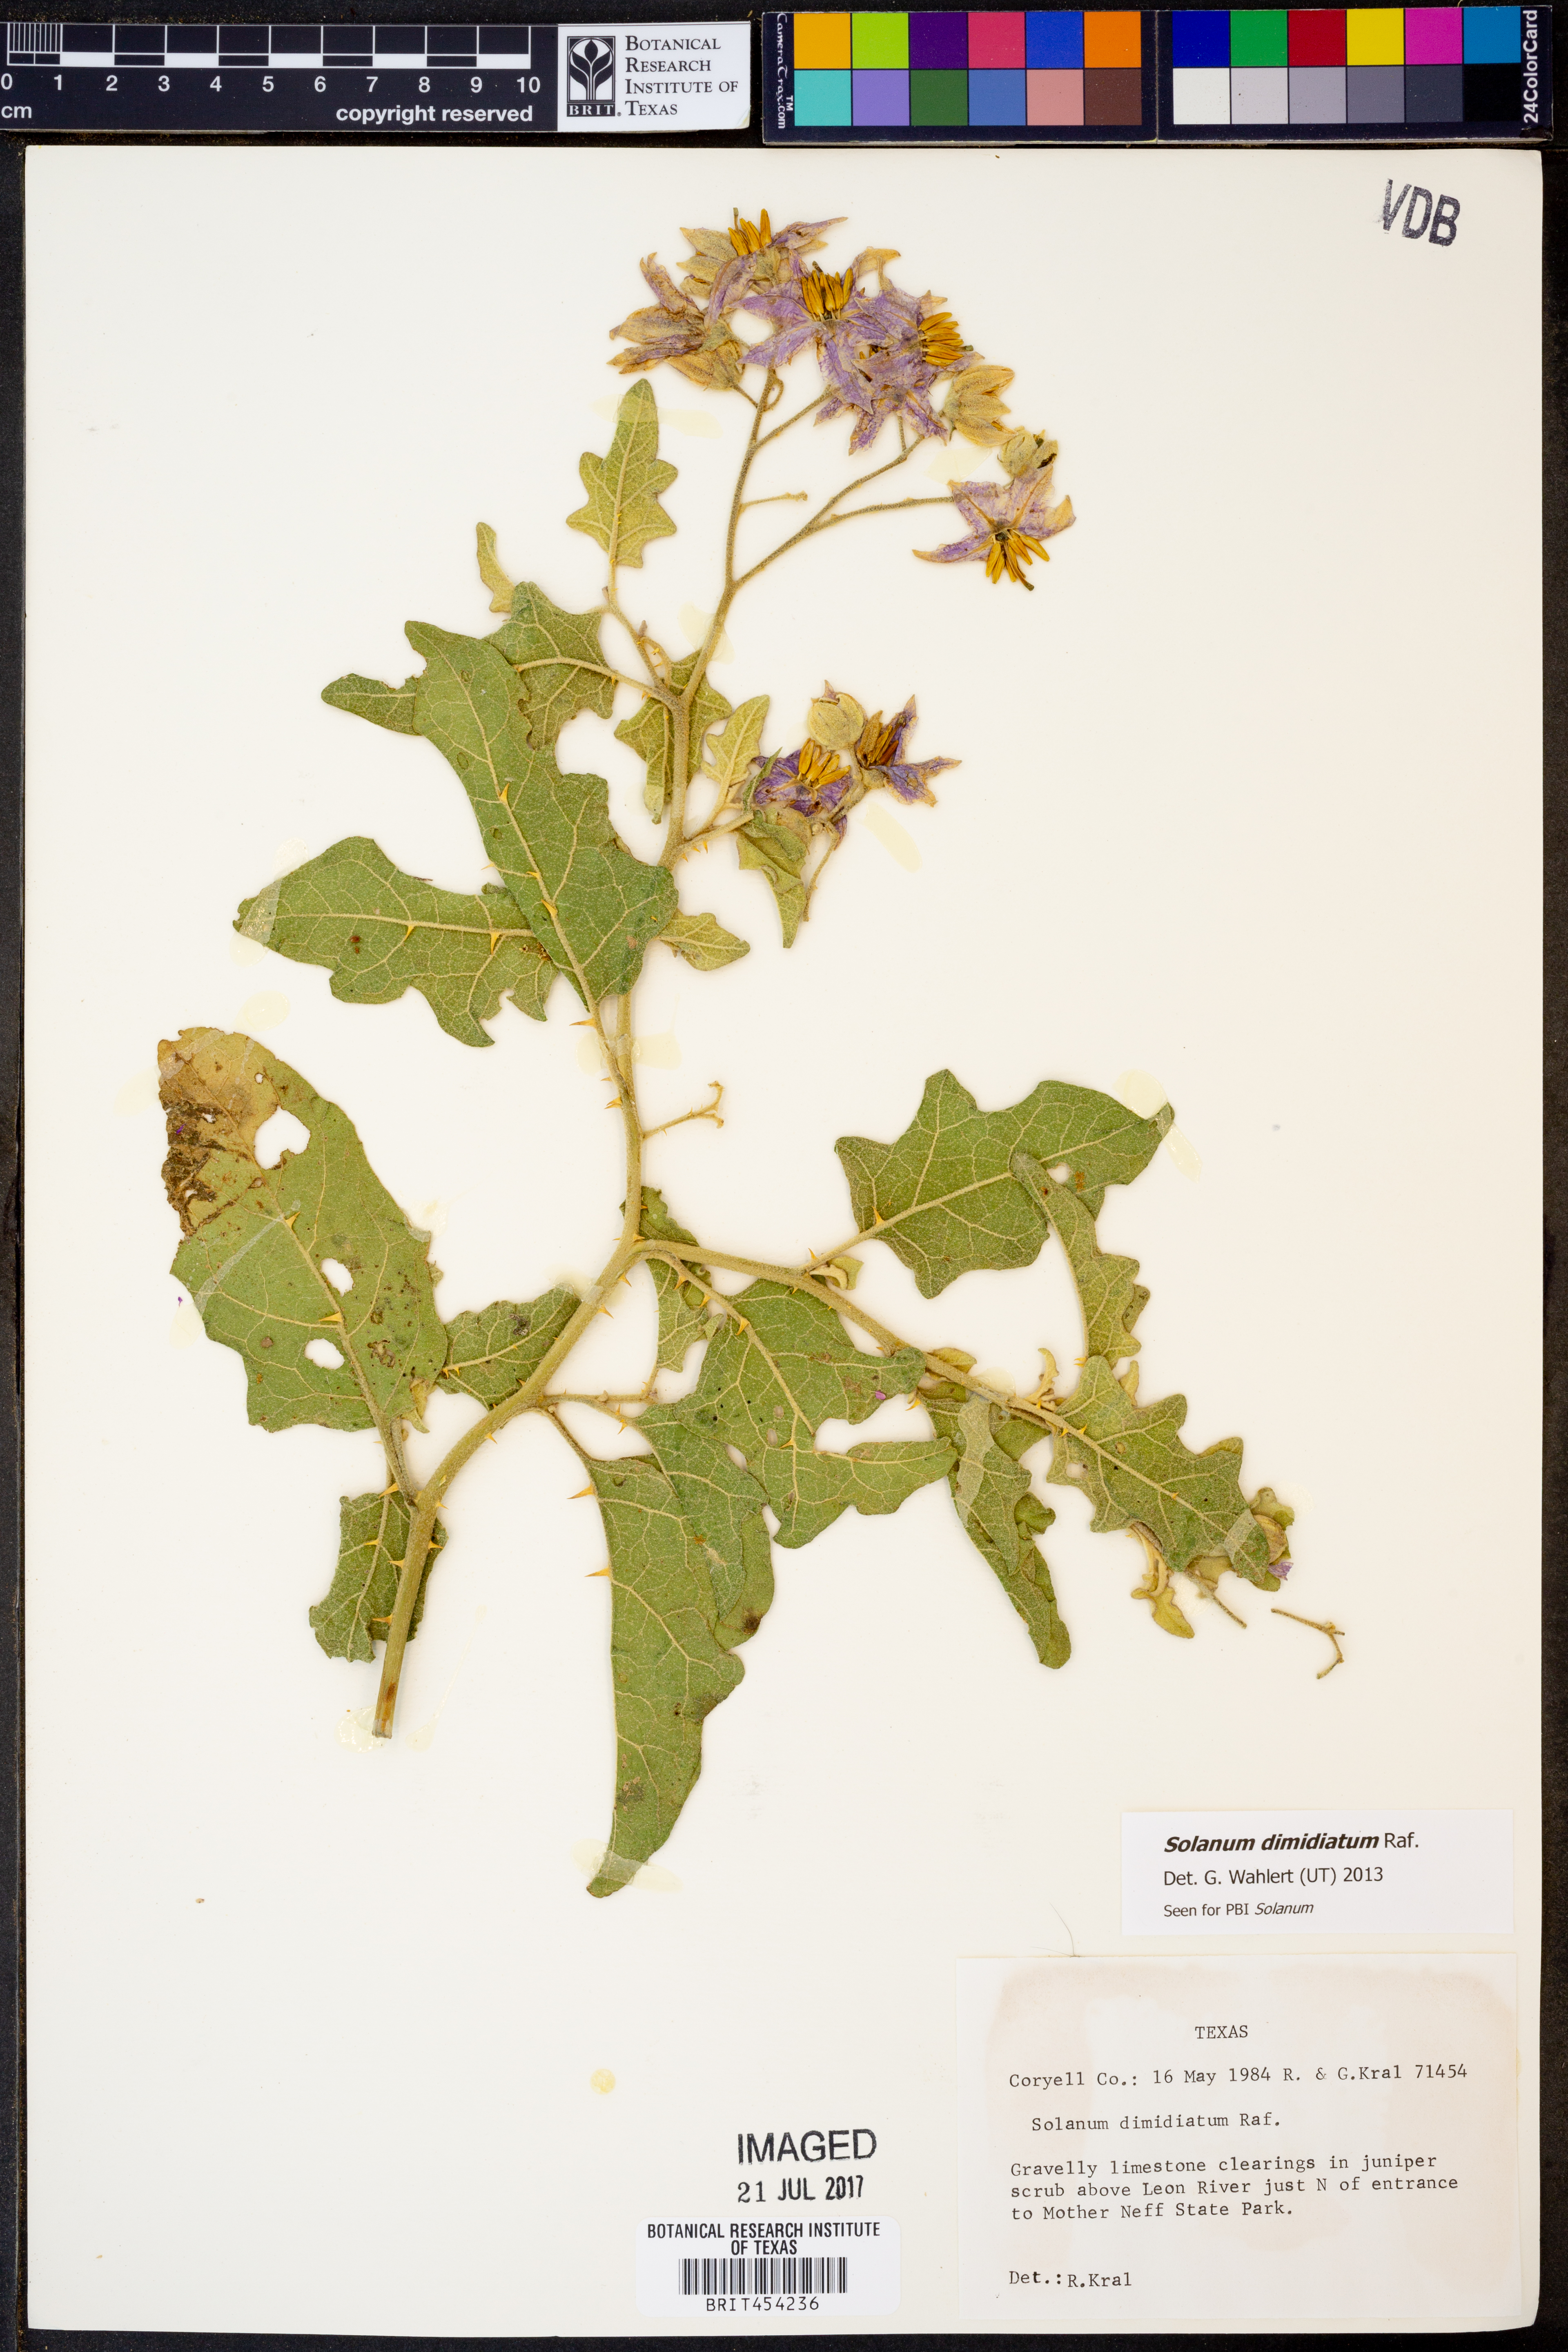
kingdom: Plantae
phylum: Tracheophyta
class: Magnoliopsida
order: Solanales
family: Solanaceae
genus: Solanum
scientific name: Solanum dimidiatum
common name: Carolina horse-nettle
